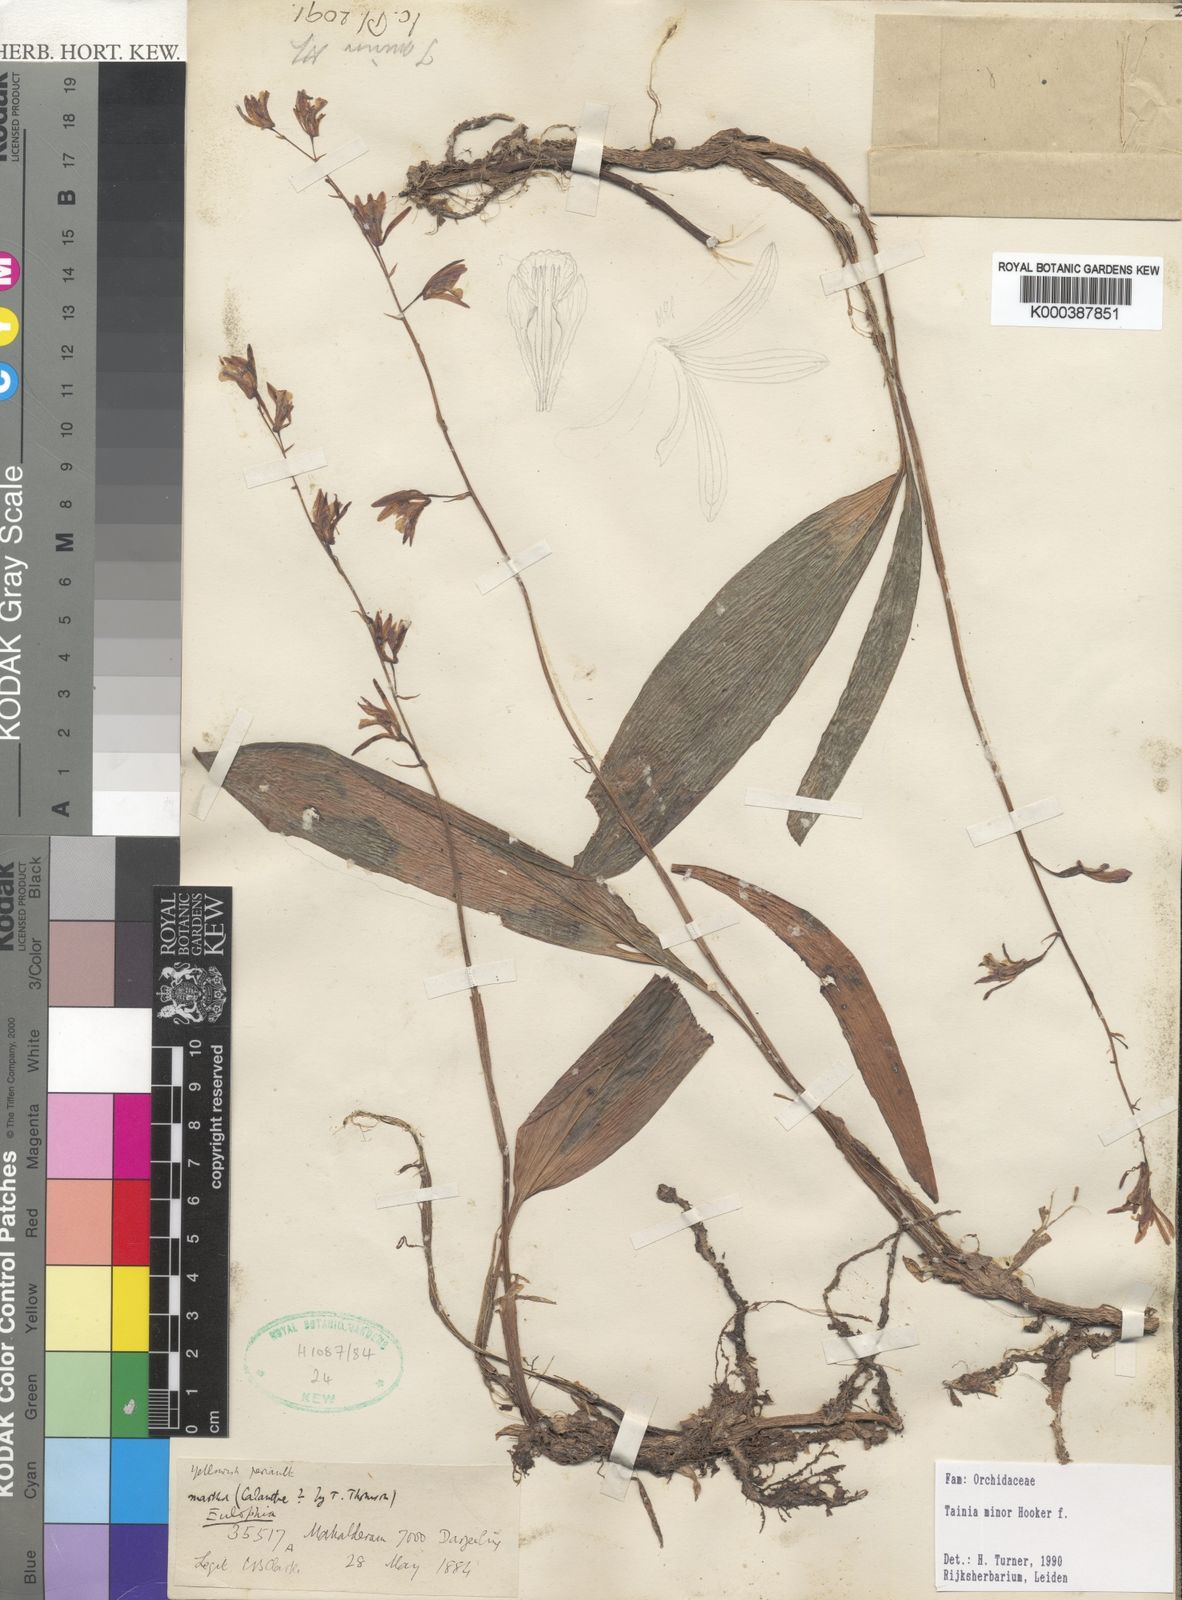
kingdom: Plantae
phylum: Tracheophyta
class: Liliopsida
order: Asparagales
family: Orchidaceae
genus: Tainia
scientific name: Tainia minor
